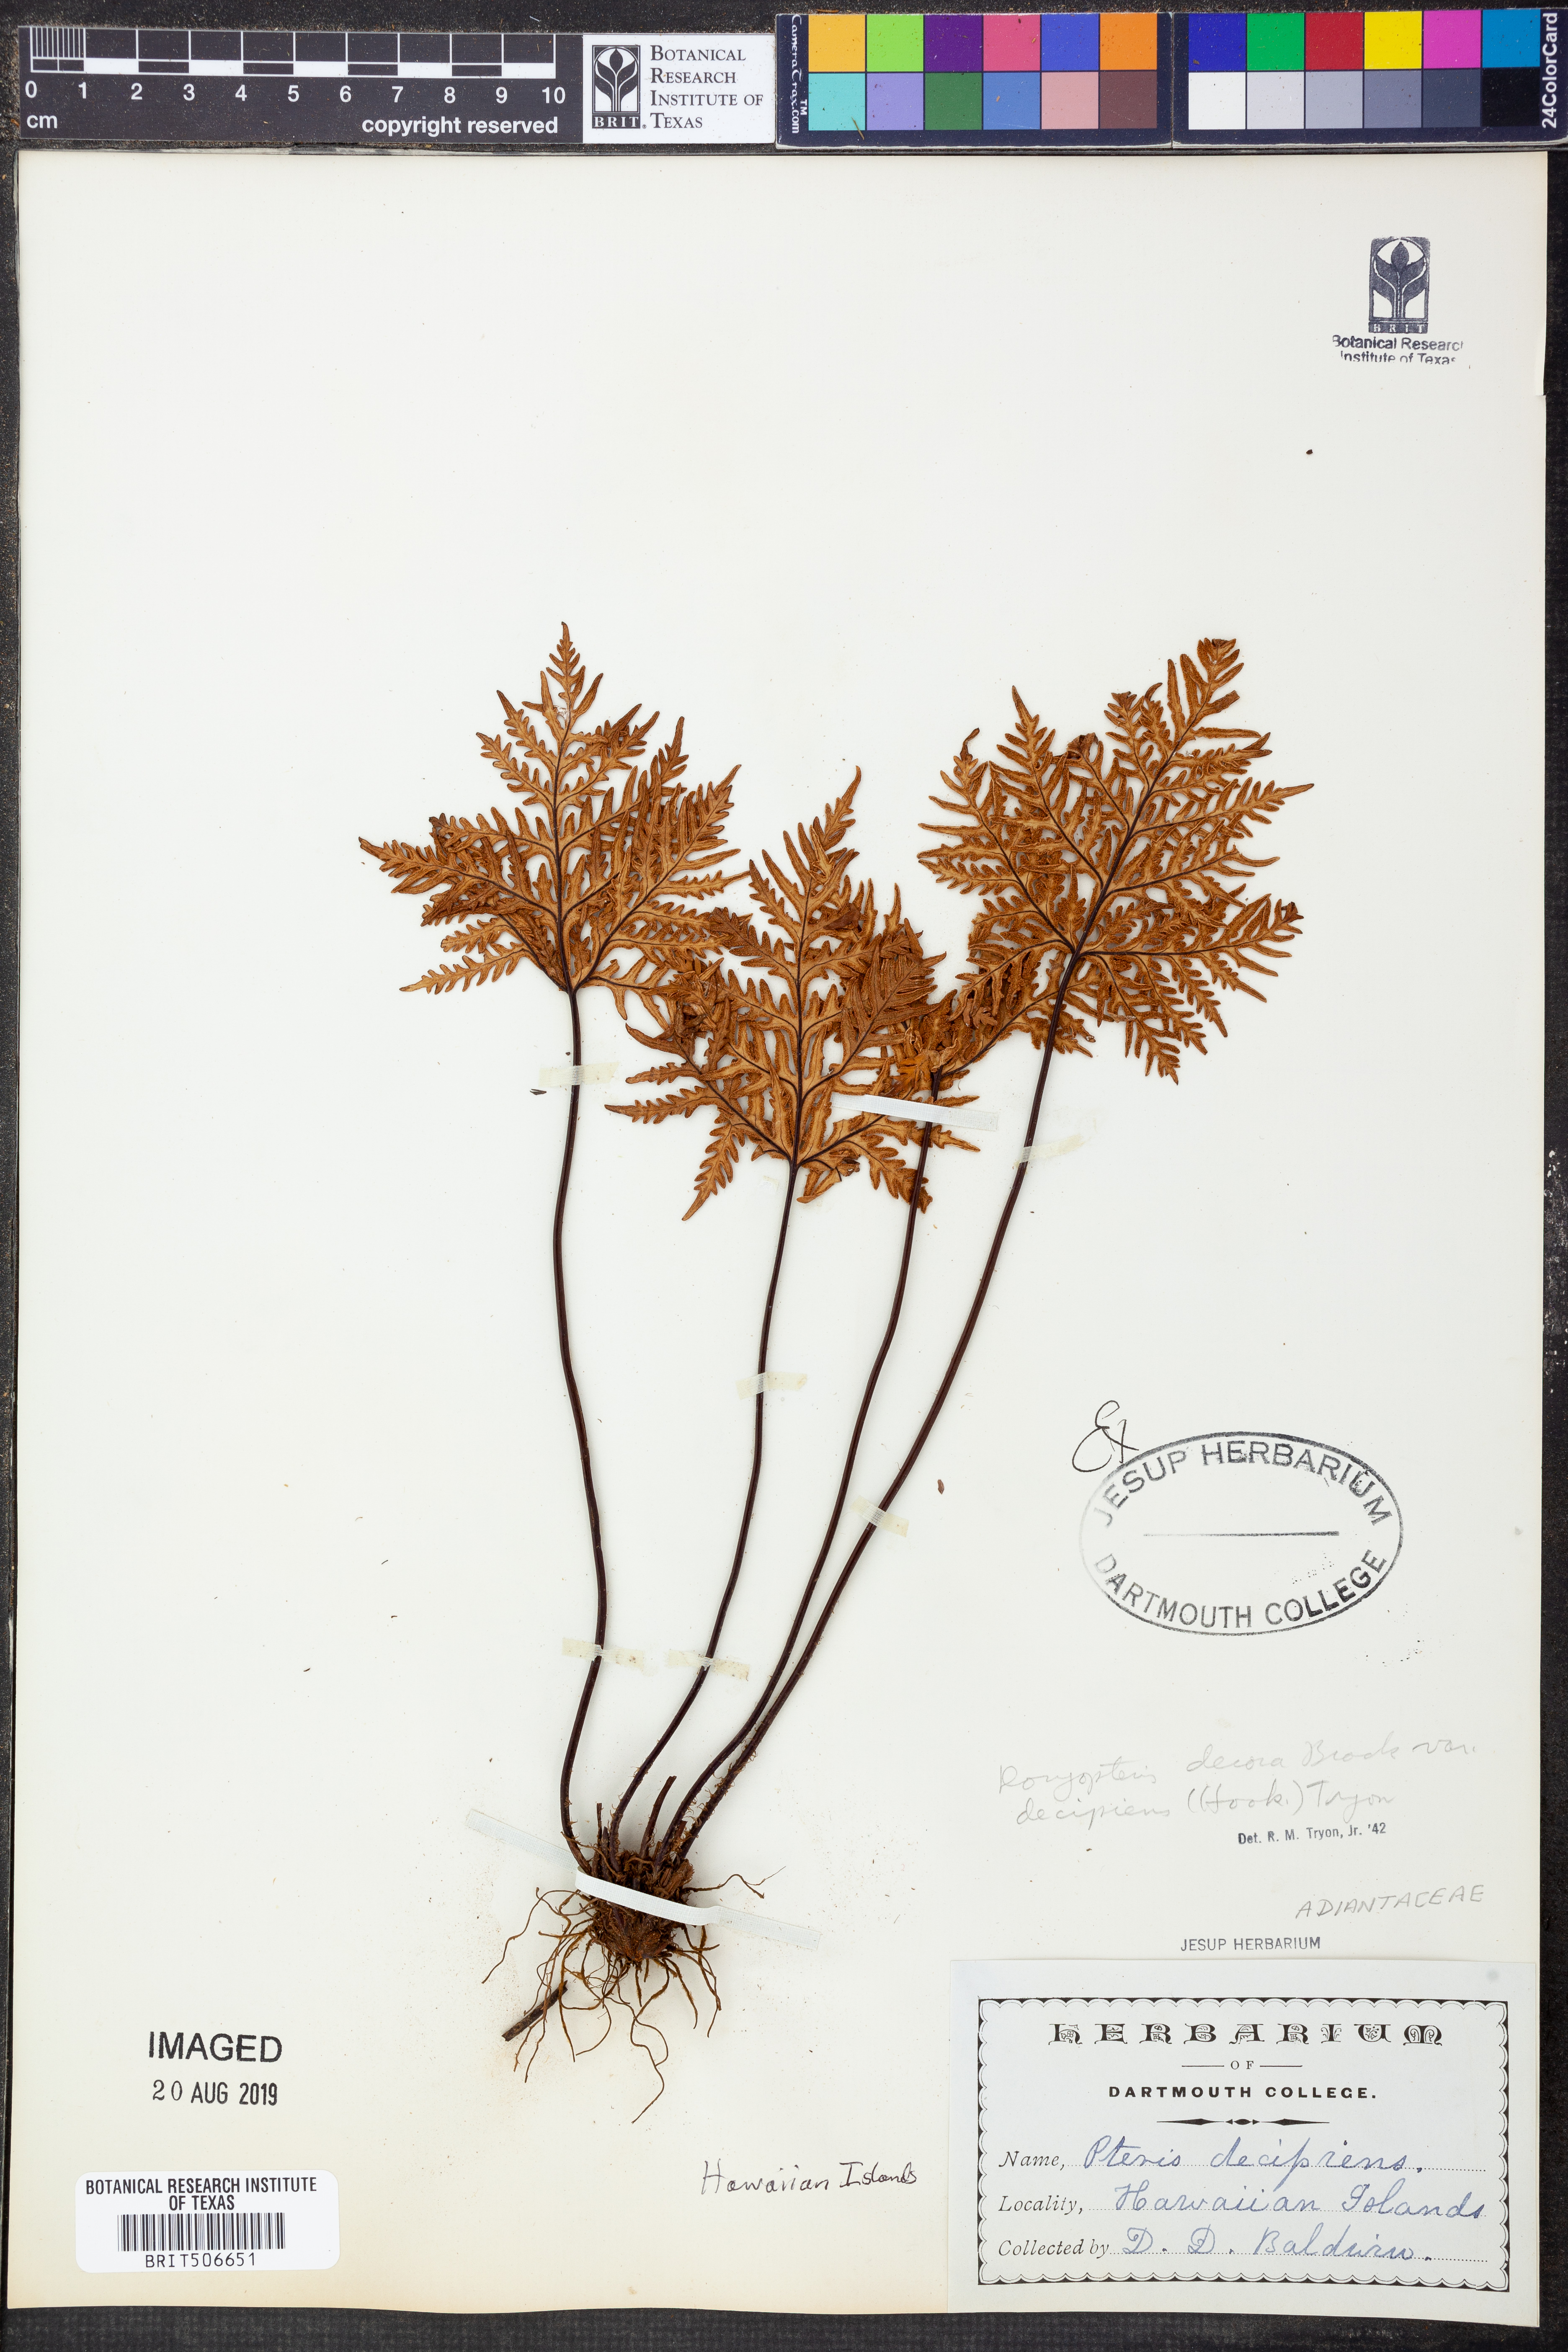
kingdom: Plantae
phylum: Tracheophyta
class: Polypodiopsida
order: Polypodiales
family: Pteridaceae
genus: Doryopteris
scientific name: Doryopteris decipiens
